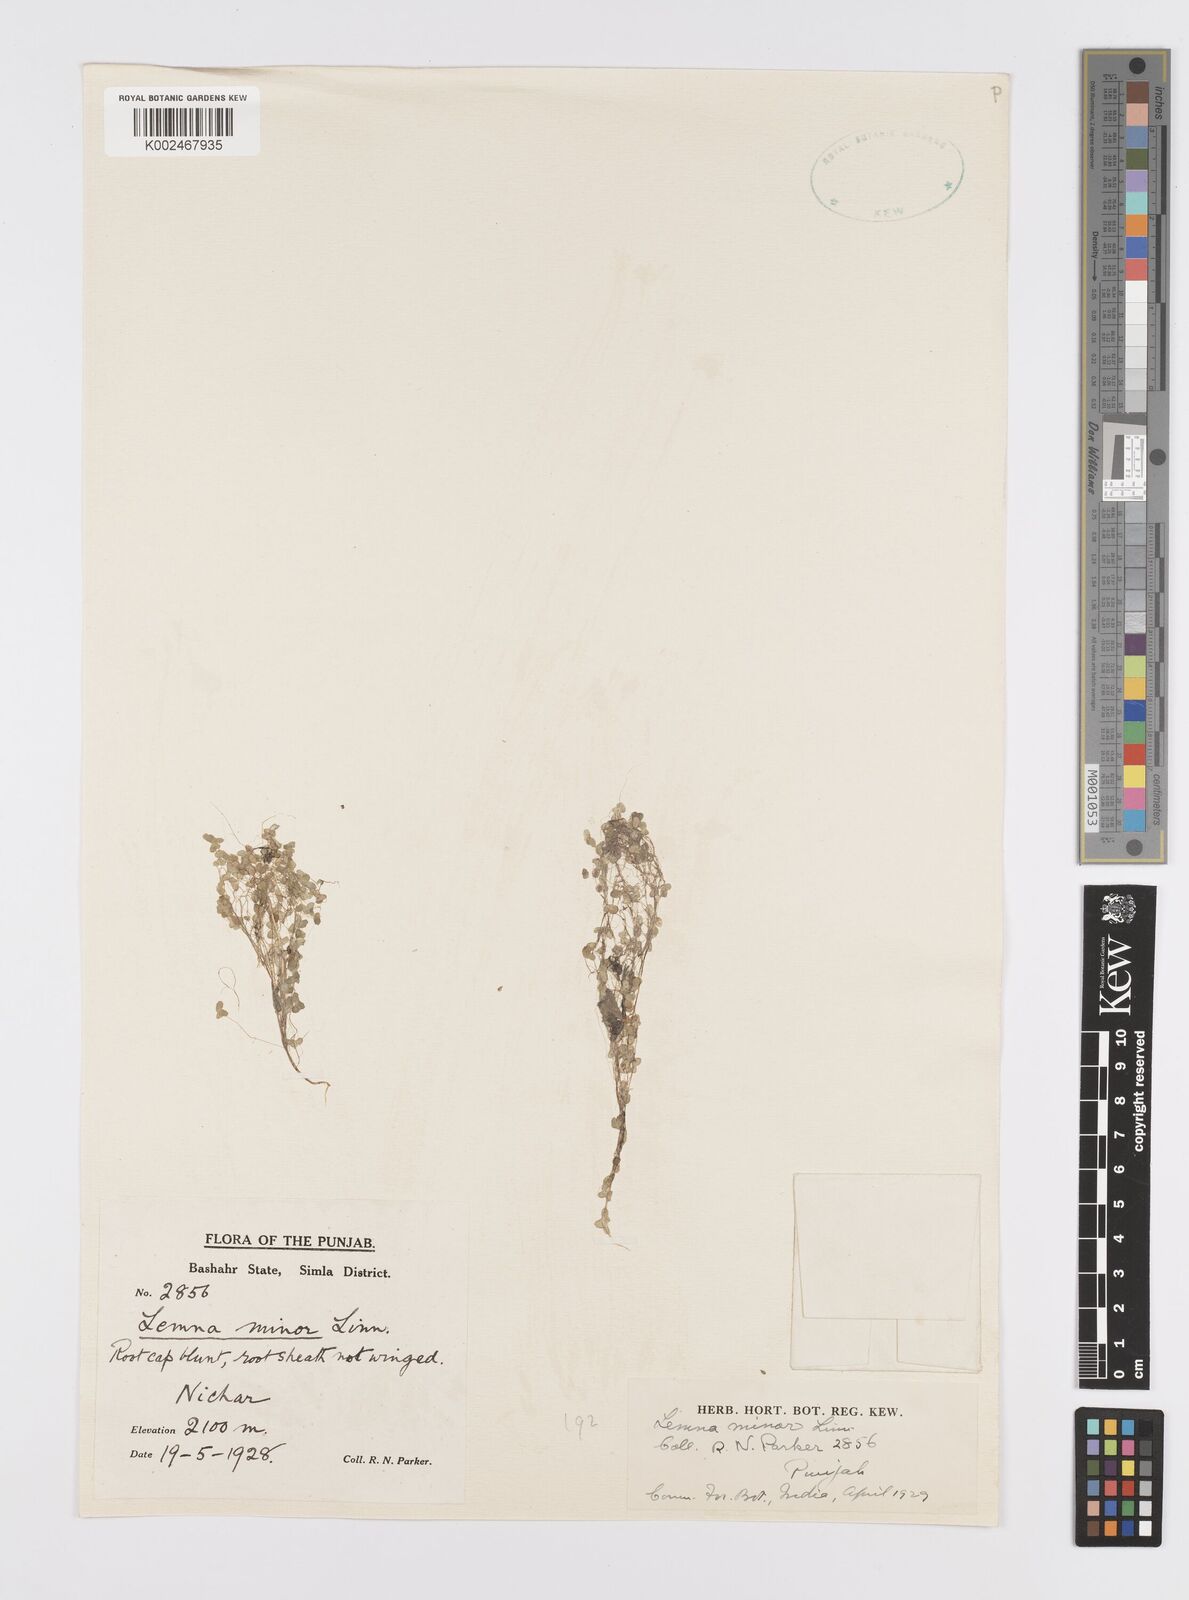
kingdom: Plantae
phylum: Tracheophyta
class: Liliopsida
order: Alismatales
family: Araceae
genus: Lemna
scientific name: Lemna minor
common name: Common duckweed
